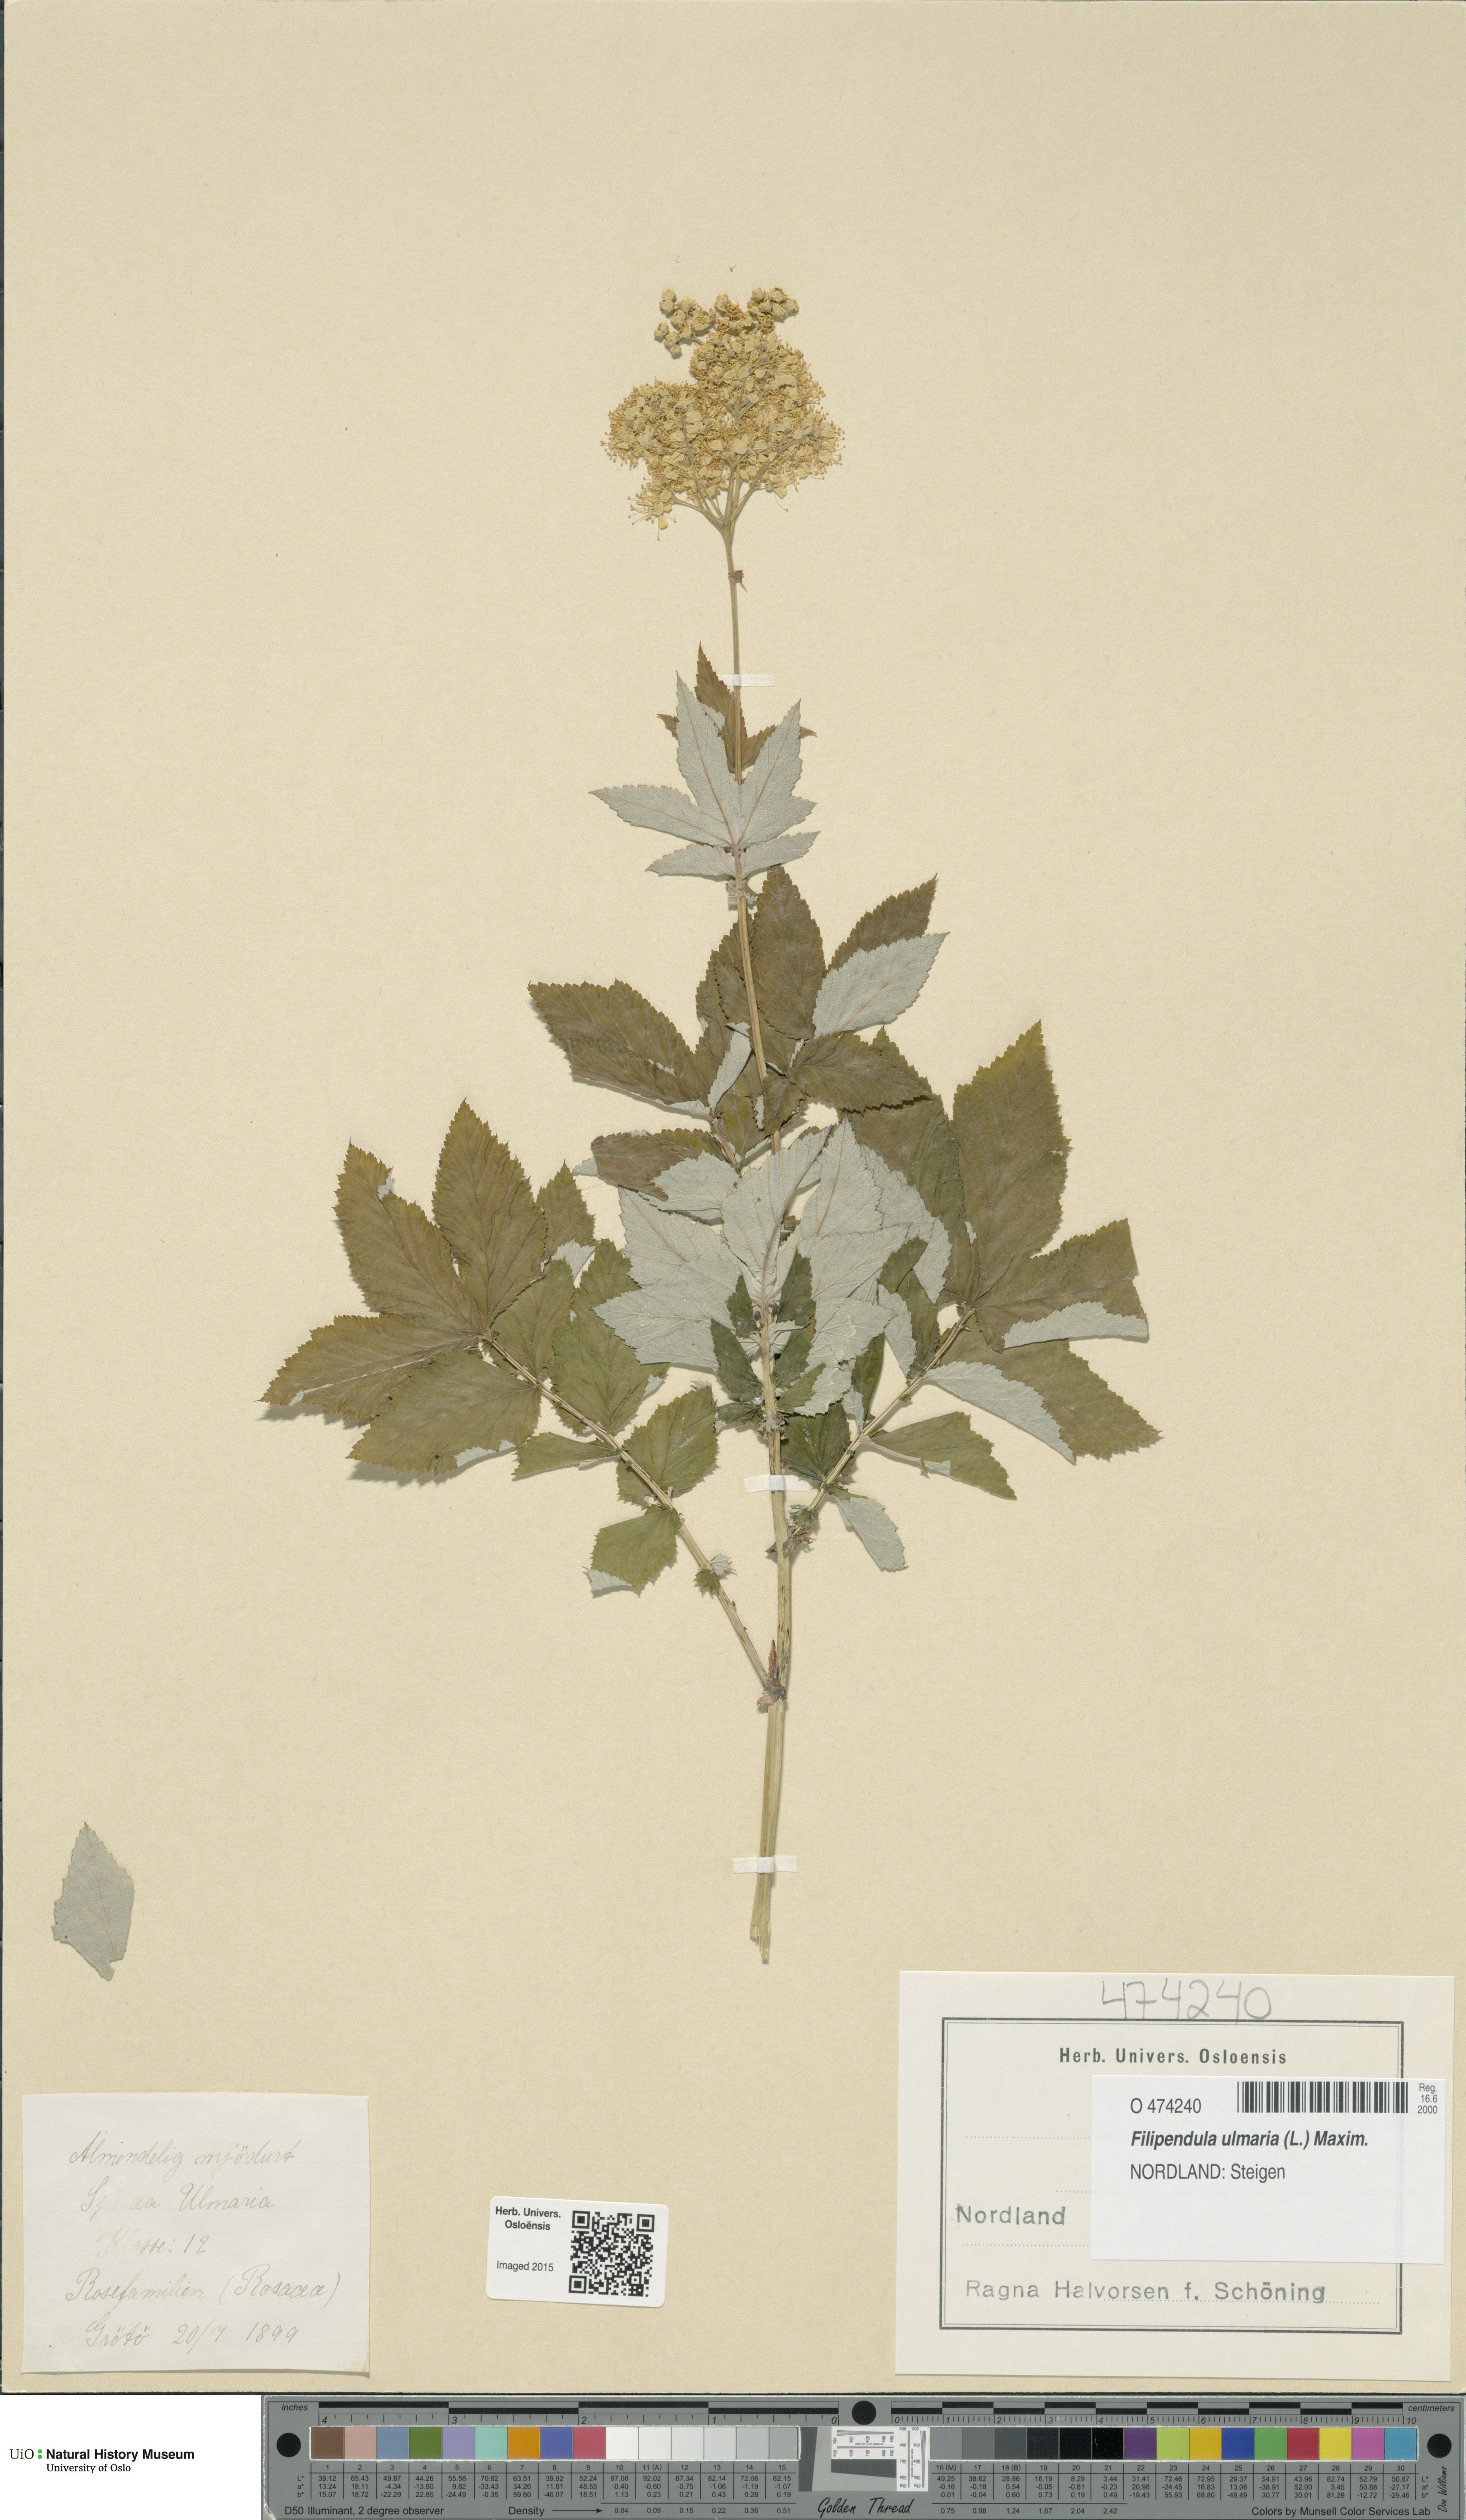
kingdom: Plantae
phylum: Tracheophyta
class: Magnoliopsida
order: Rosales
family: Rosaceae
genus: Filipendula
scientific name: Filipendula ulmaria
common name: Meadowsweet
